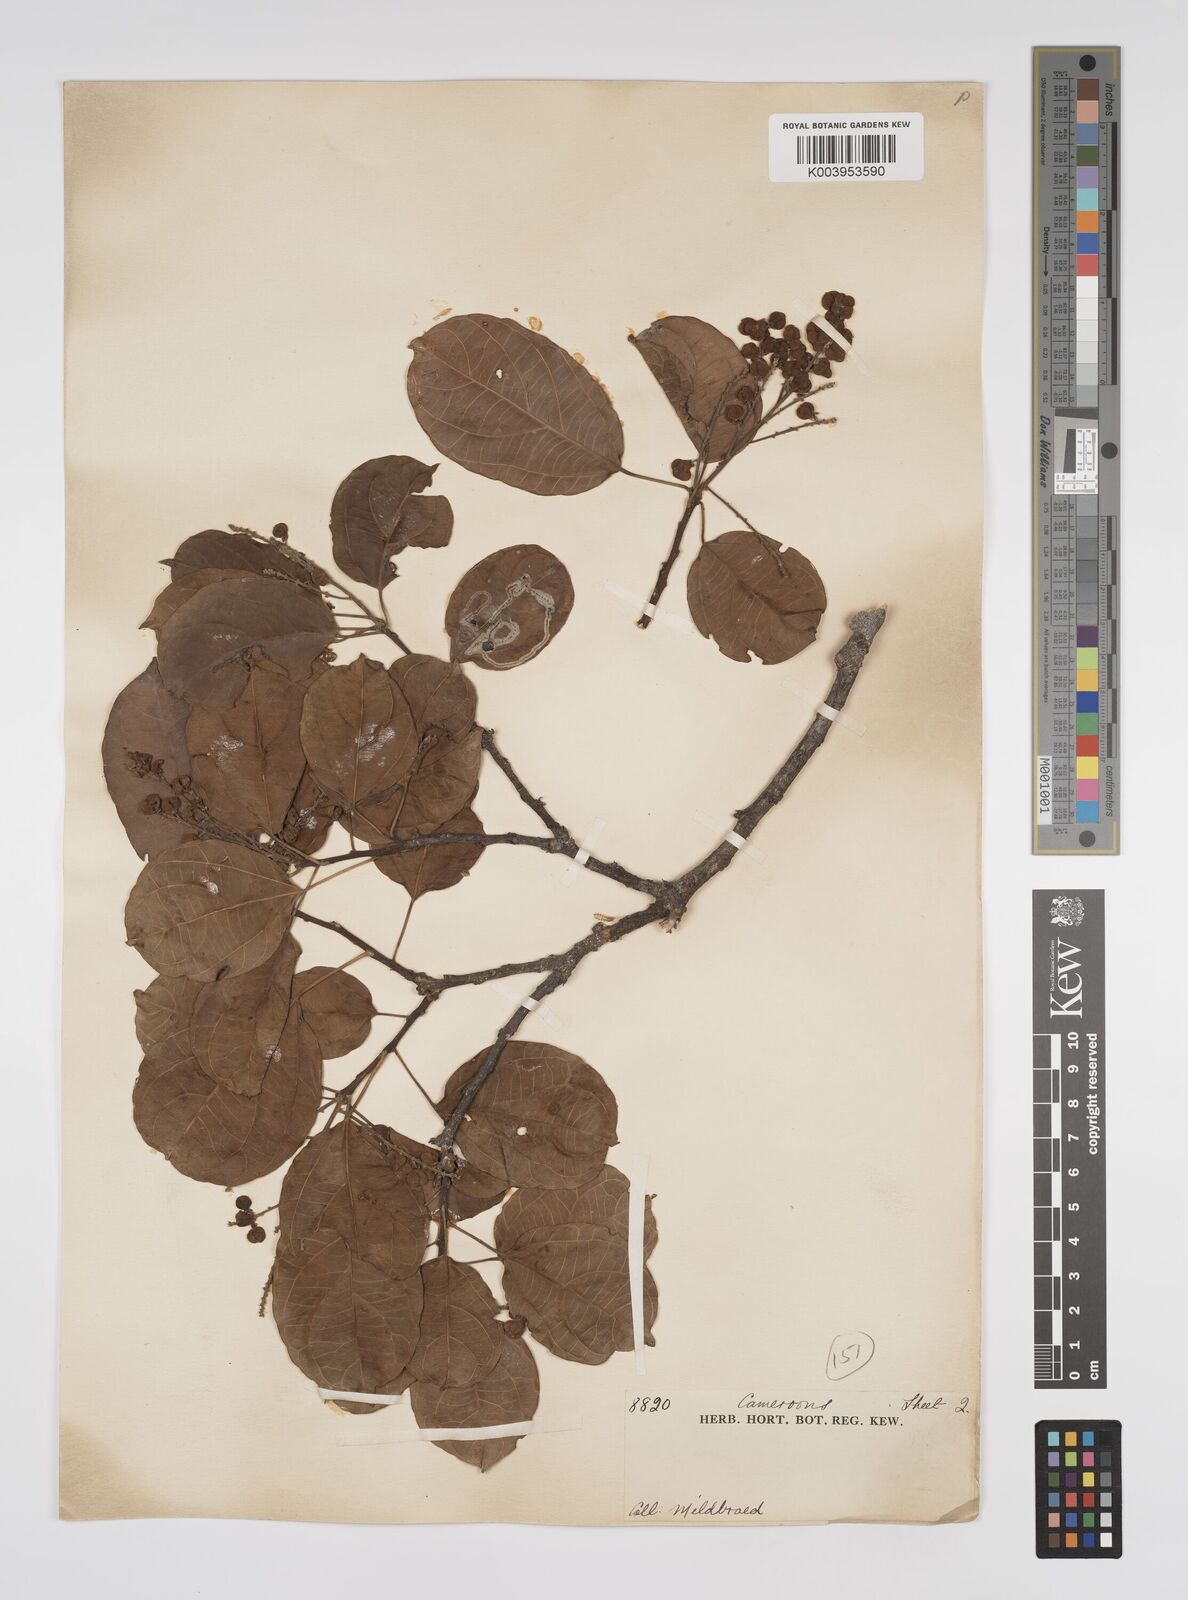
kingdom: Plantae
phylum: Tracheophyta
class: Magnoliopsida
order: Malpighiales
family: Euphorbiaceae
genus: Discoglypremna
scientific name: Discoglypremna caloneura
